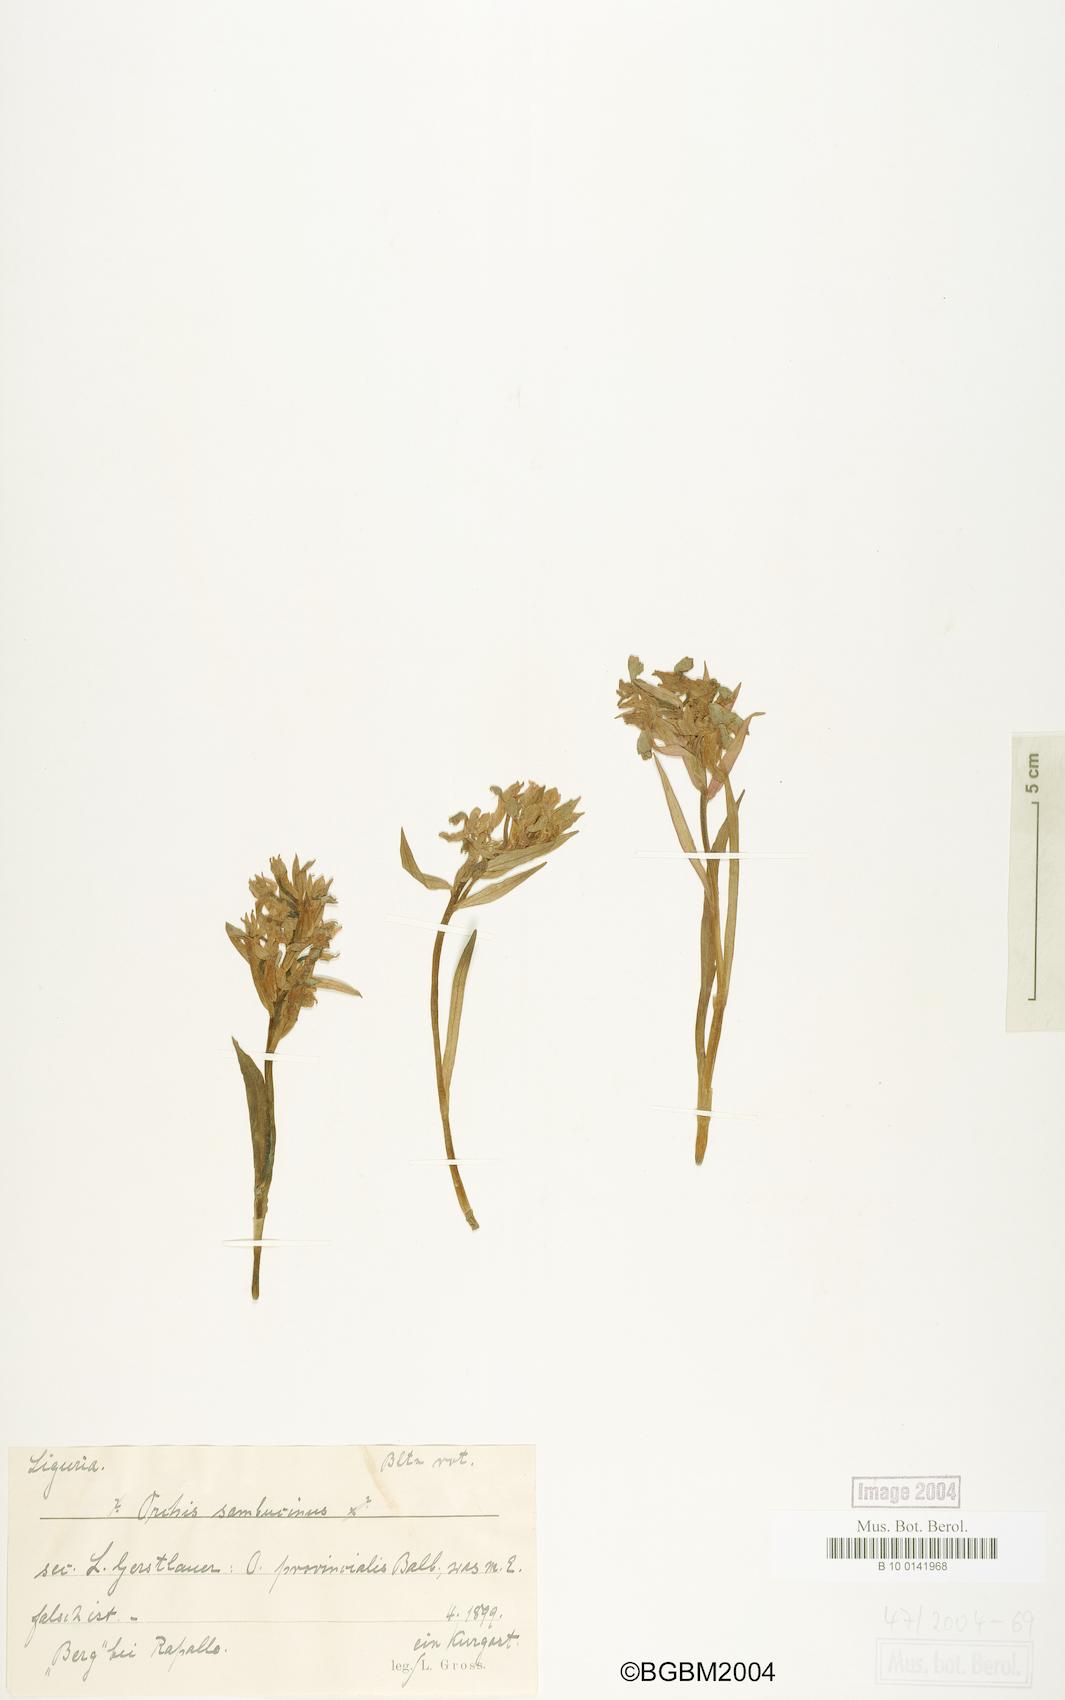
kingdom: Plantae
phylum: Tracheophyta
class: Liliopsida
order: Asparagales
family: Orchidaceae
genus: Dactylorhiza
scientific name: Dactylorhiza sambucina
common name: Elder-flowered orchid
